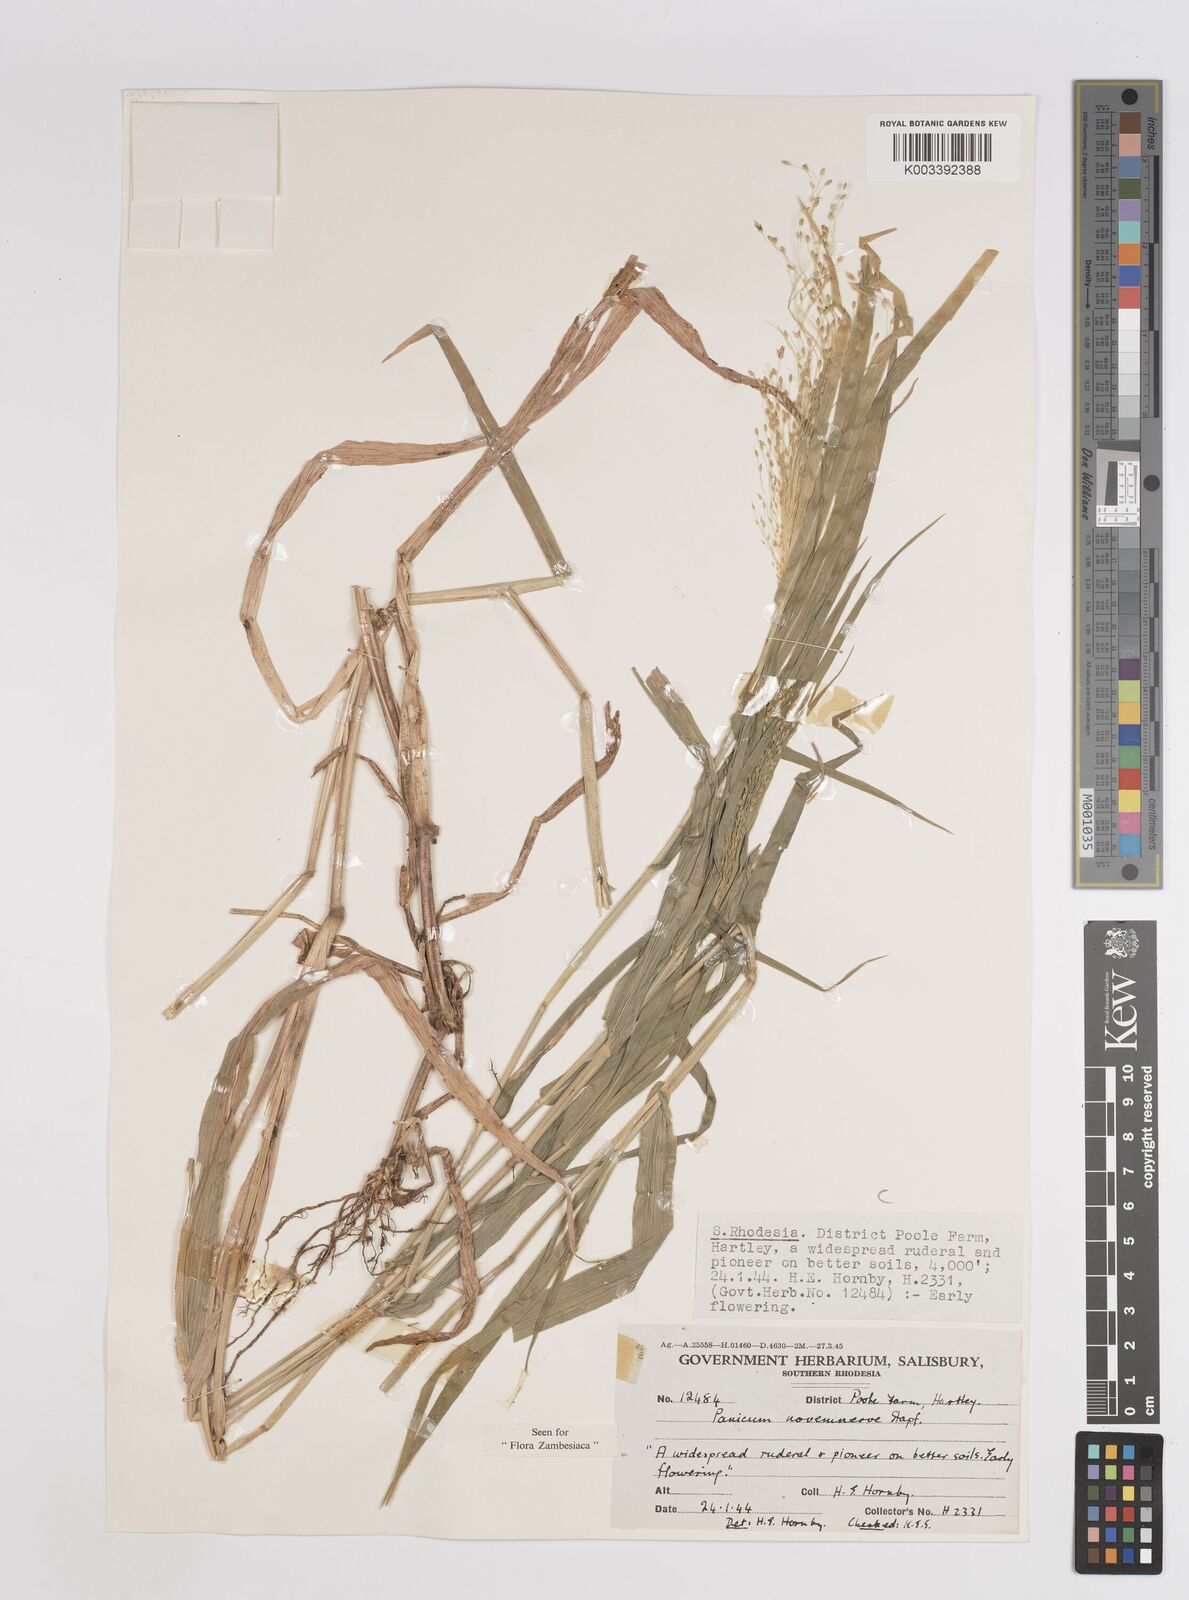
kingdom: Plantae
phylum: Tracheophyta
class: Liliopsida
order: Poales
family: Poaceae
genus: Panicum
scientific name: Panicum novemnerve
